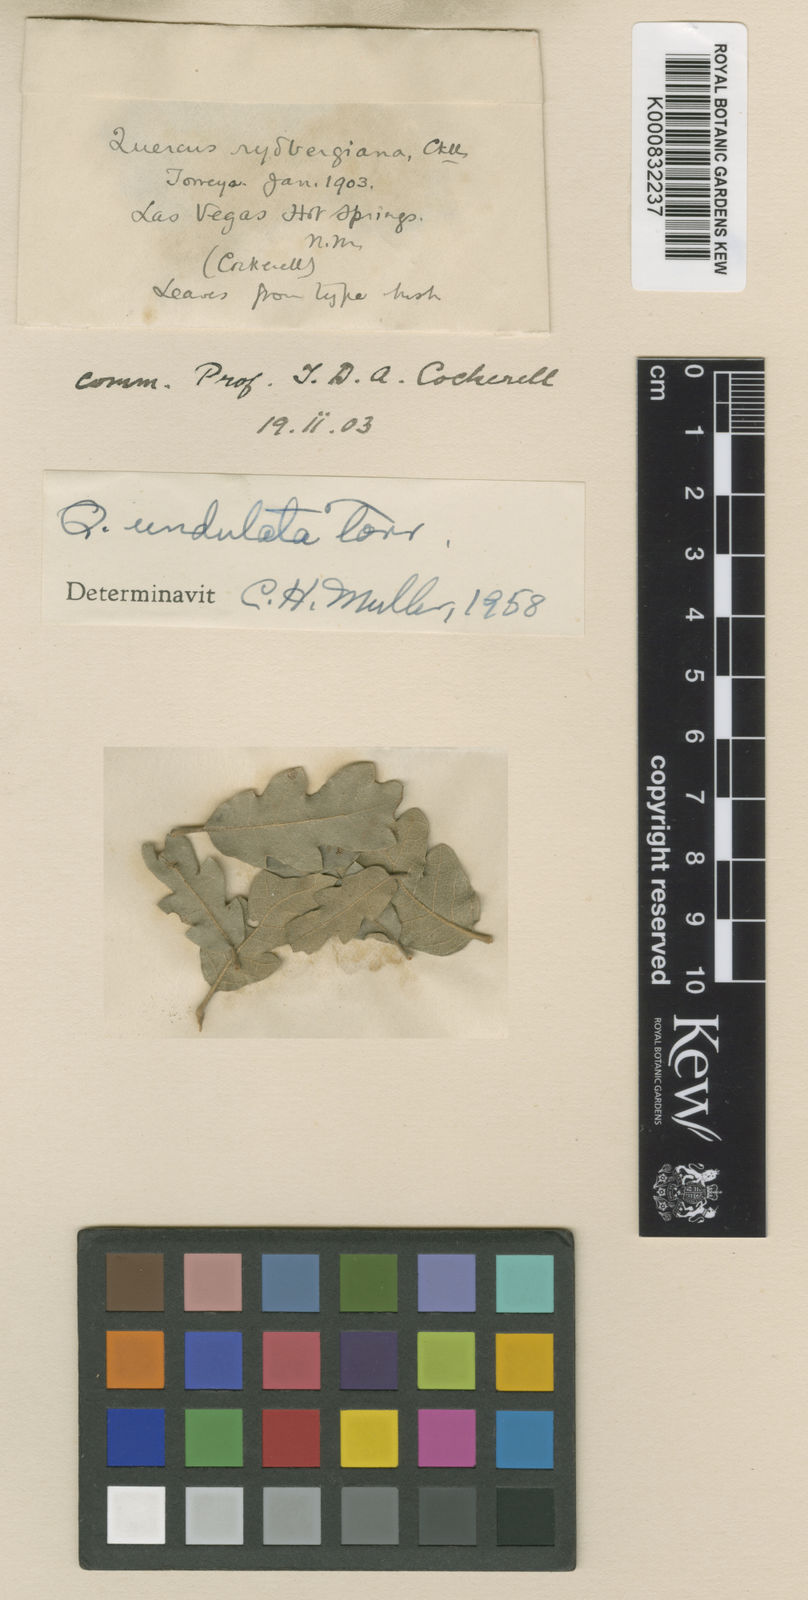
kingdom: Plantae
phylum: Tracheophyta
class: Magnoliopsida
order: Fagales
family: Fagaceae
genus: Quercus
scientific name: Quercus undulata
